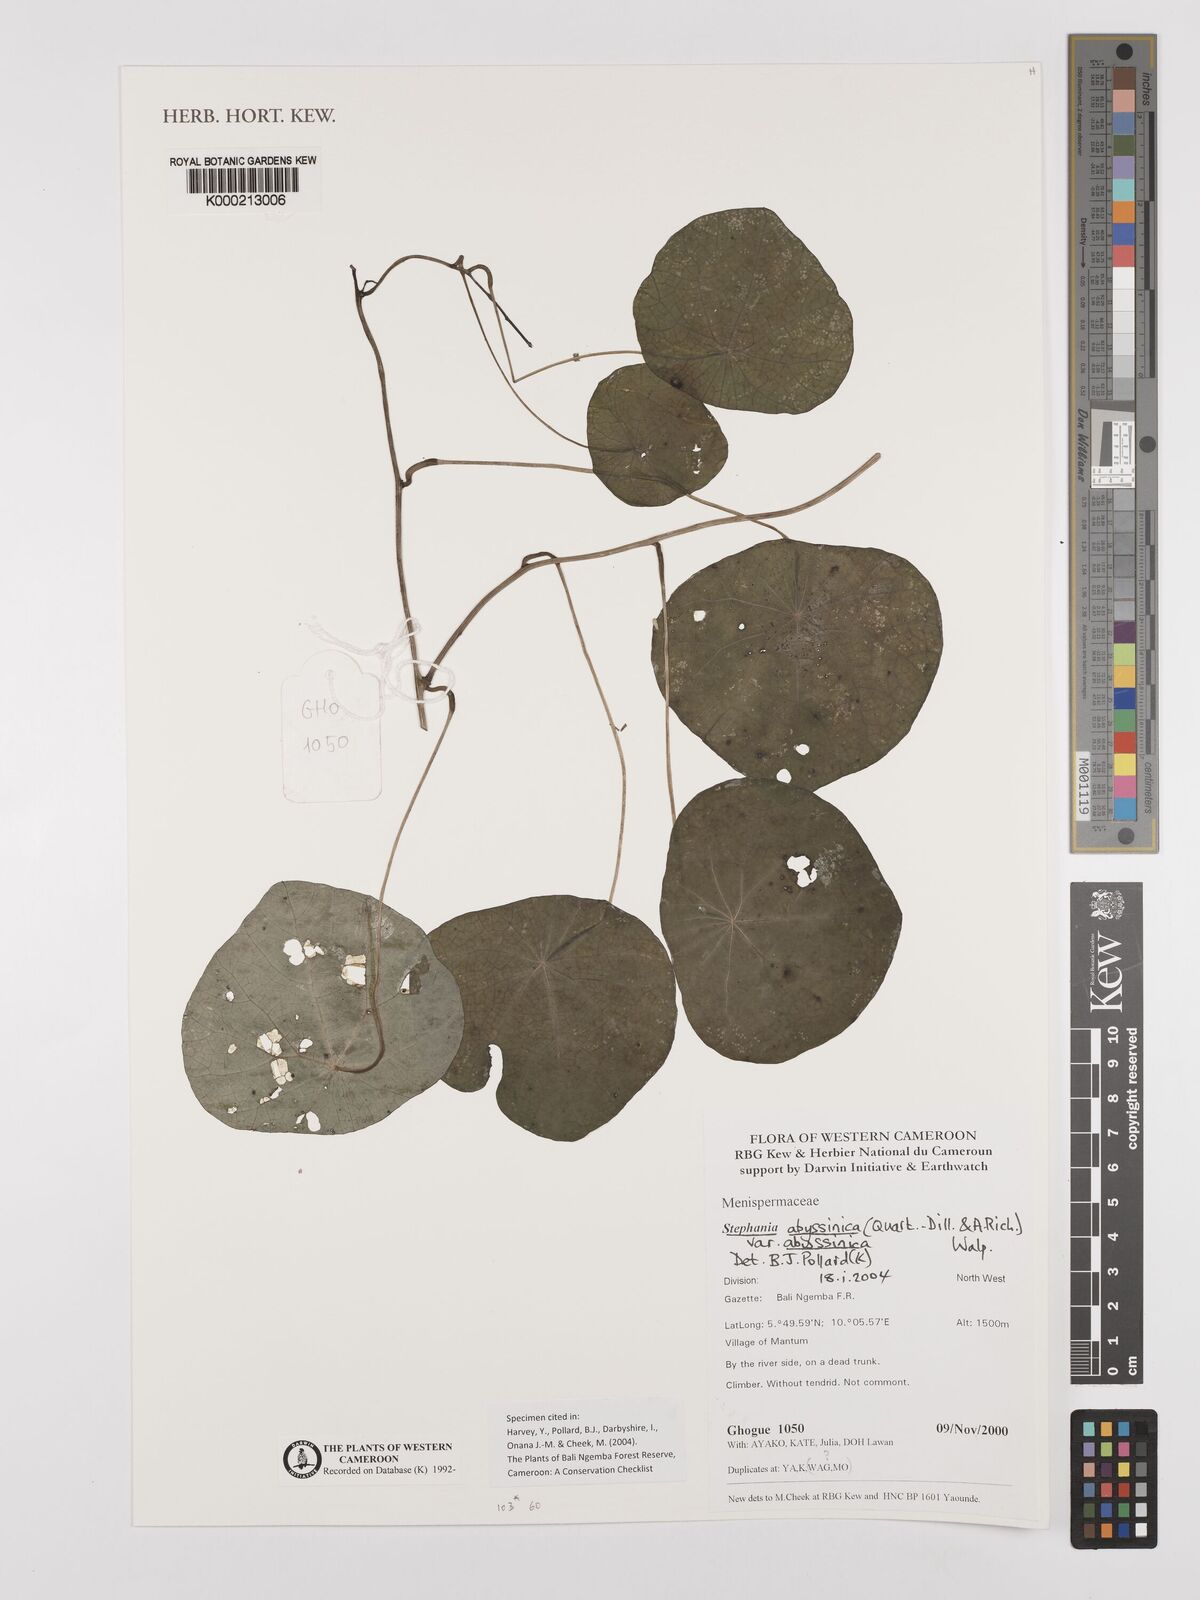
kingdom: Plantae
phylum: Tracheophyta
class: Magnoliopsida
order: Ranunculales
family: Menispermaceae
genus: Stephania
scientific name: Stephania
